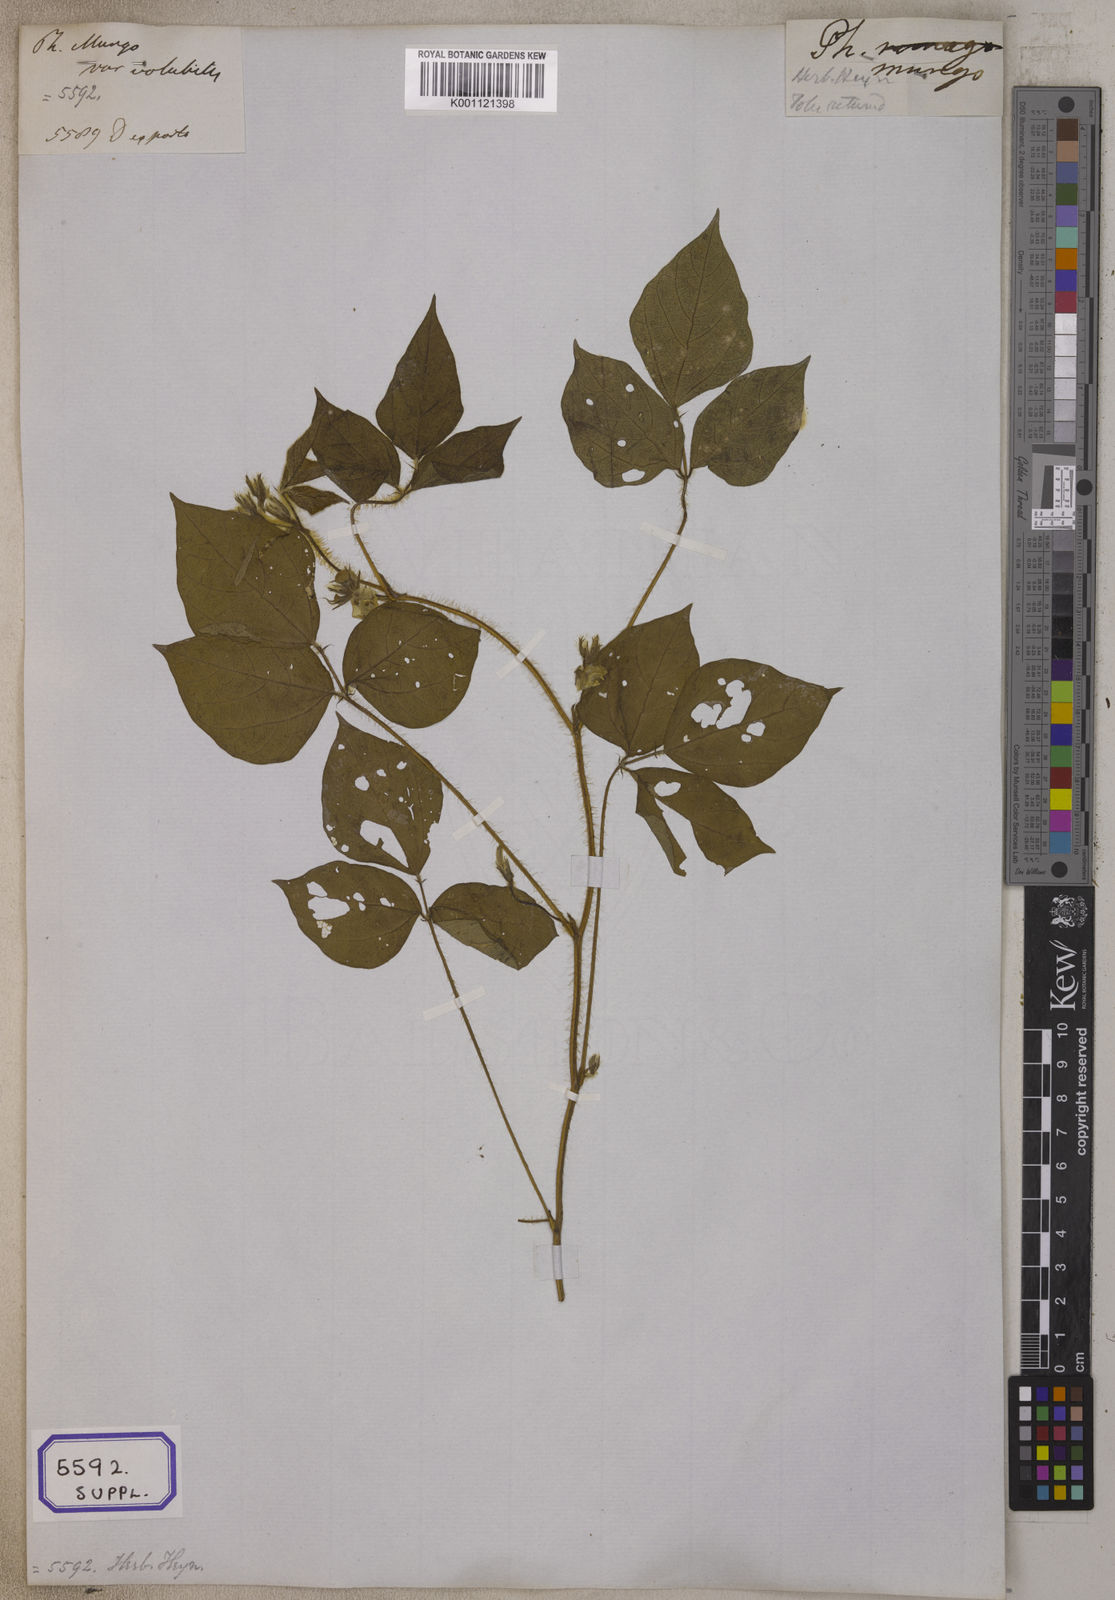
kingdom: Plantae
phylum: Tracheophyta
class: Magnoliopsida
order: Fabales
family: Fabaceae
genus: Vigna
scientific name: Vigna radiata
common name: Mung-bean
